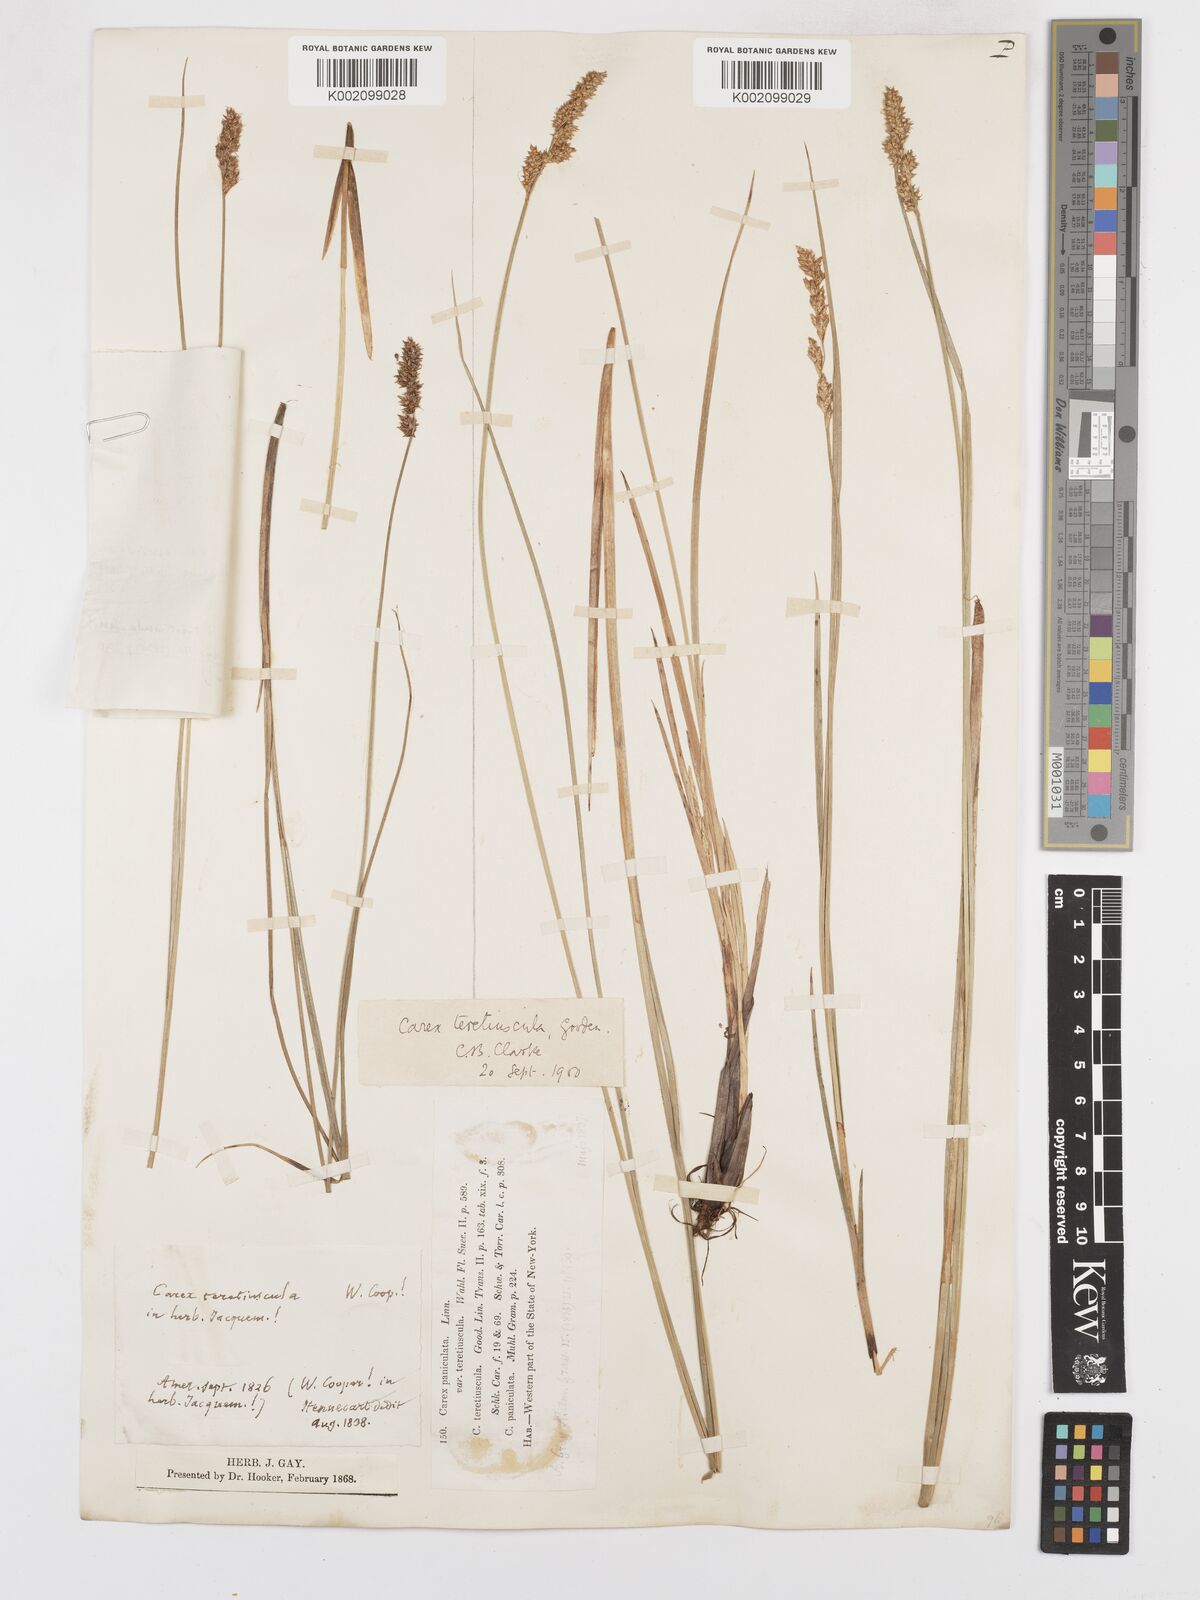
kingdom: Plantae
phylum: Tracheophyta
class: Liliopsida
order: Poales
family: Cyperaceae
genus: Carex
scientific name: Carex diandra
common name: Lesser tussock-sedge
